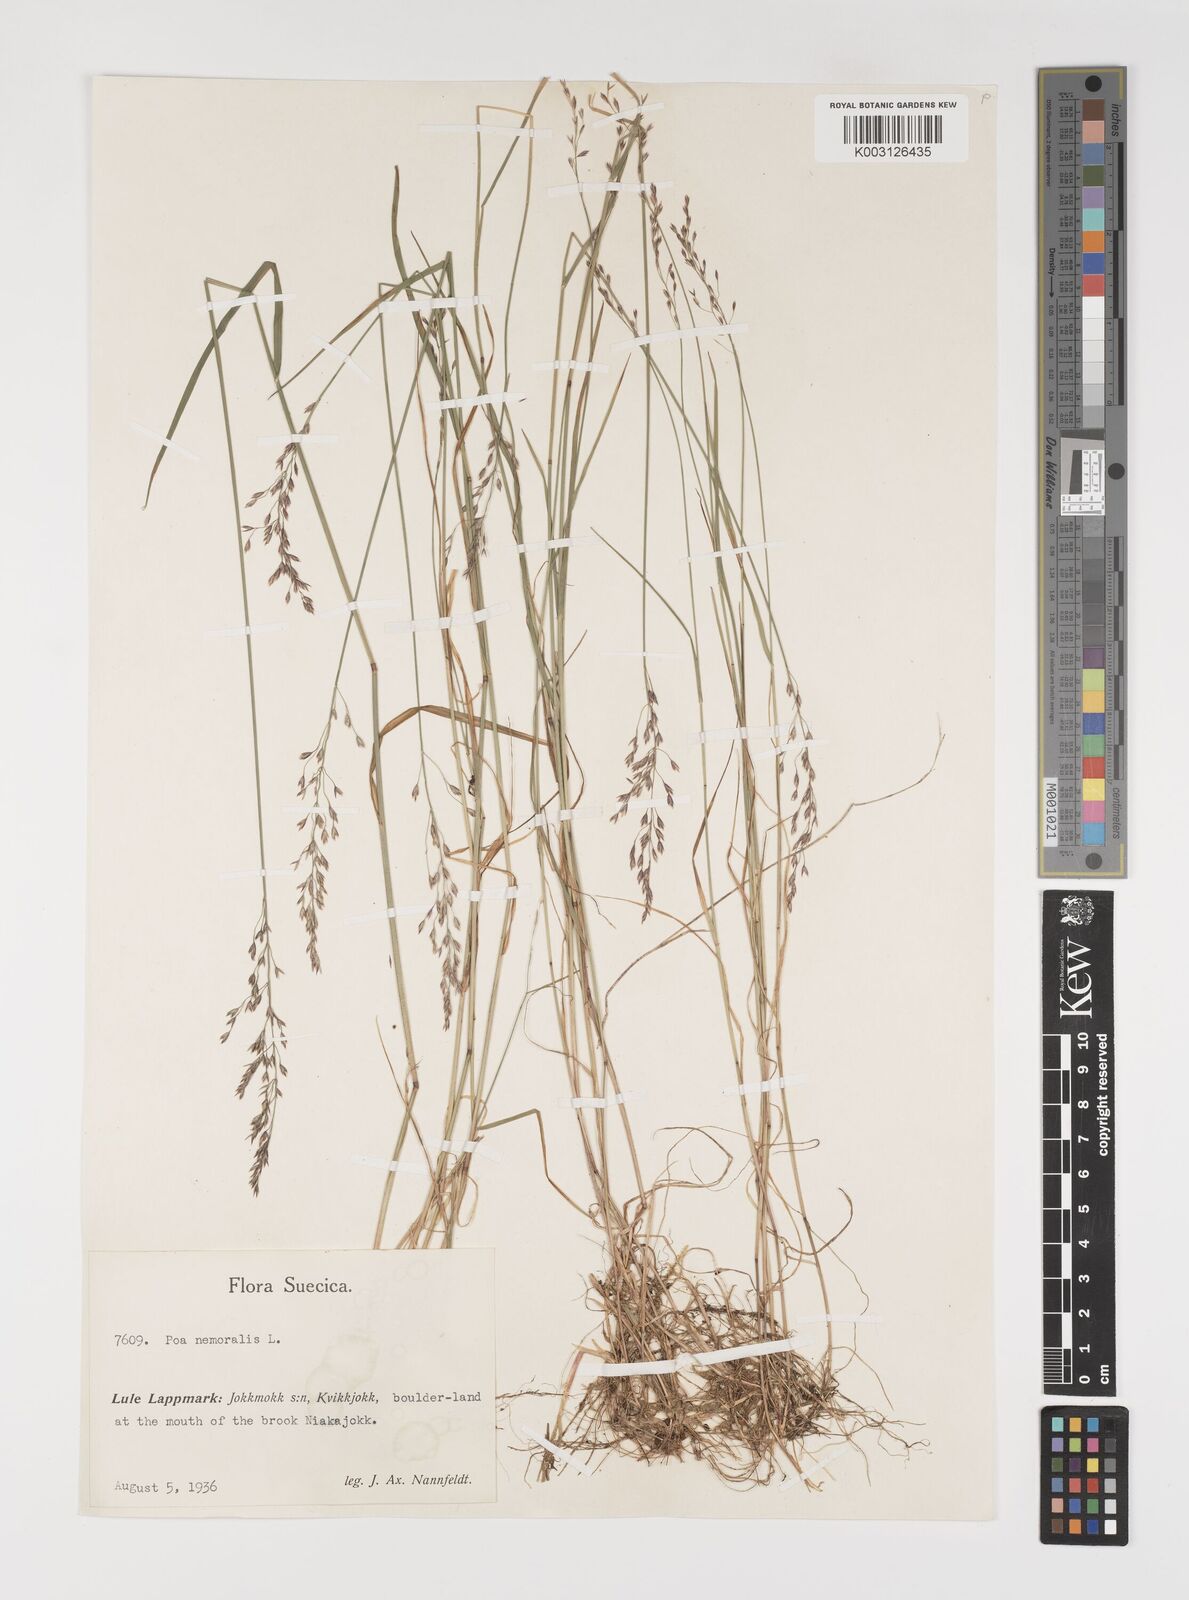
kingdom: Plantae
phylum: Tracheophyta
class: Liliopsida
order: Poales
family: Poaceae
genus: Poa
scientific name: Poa nemoralis
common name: Wood bluegrass
